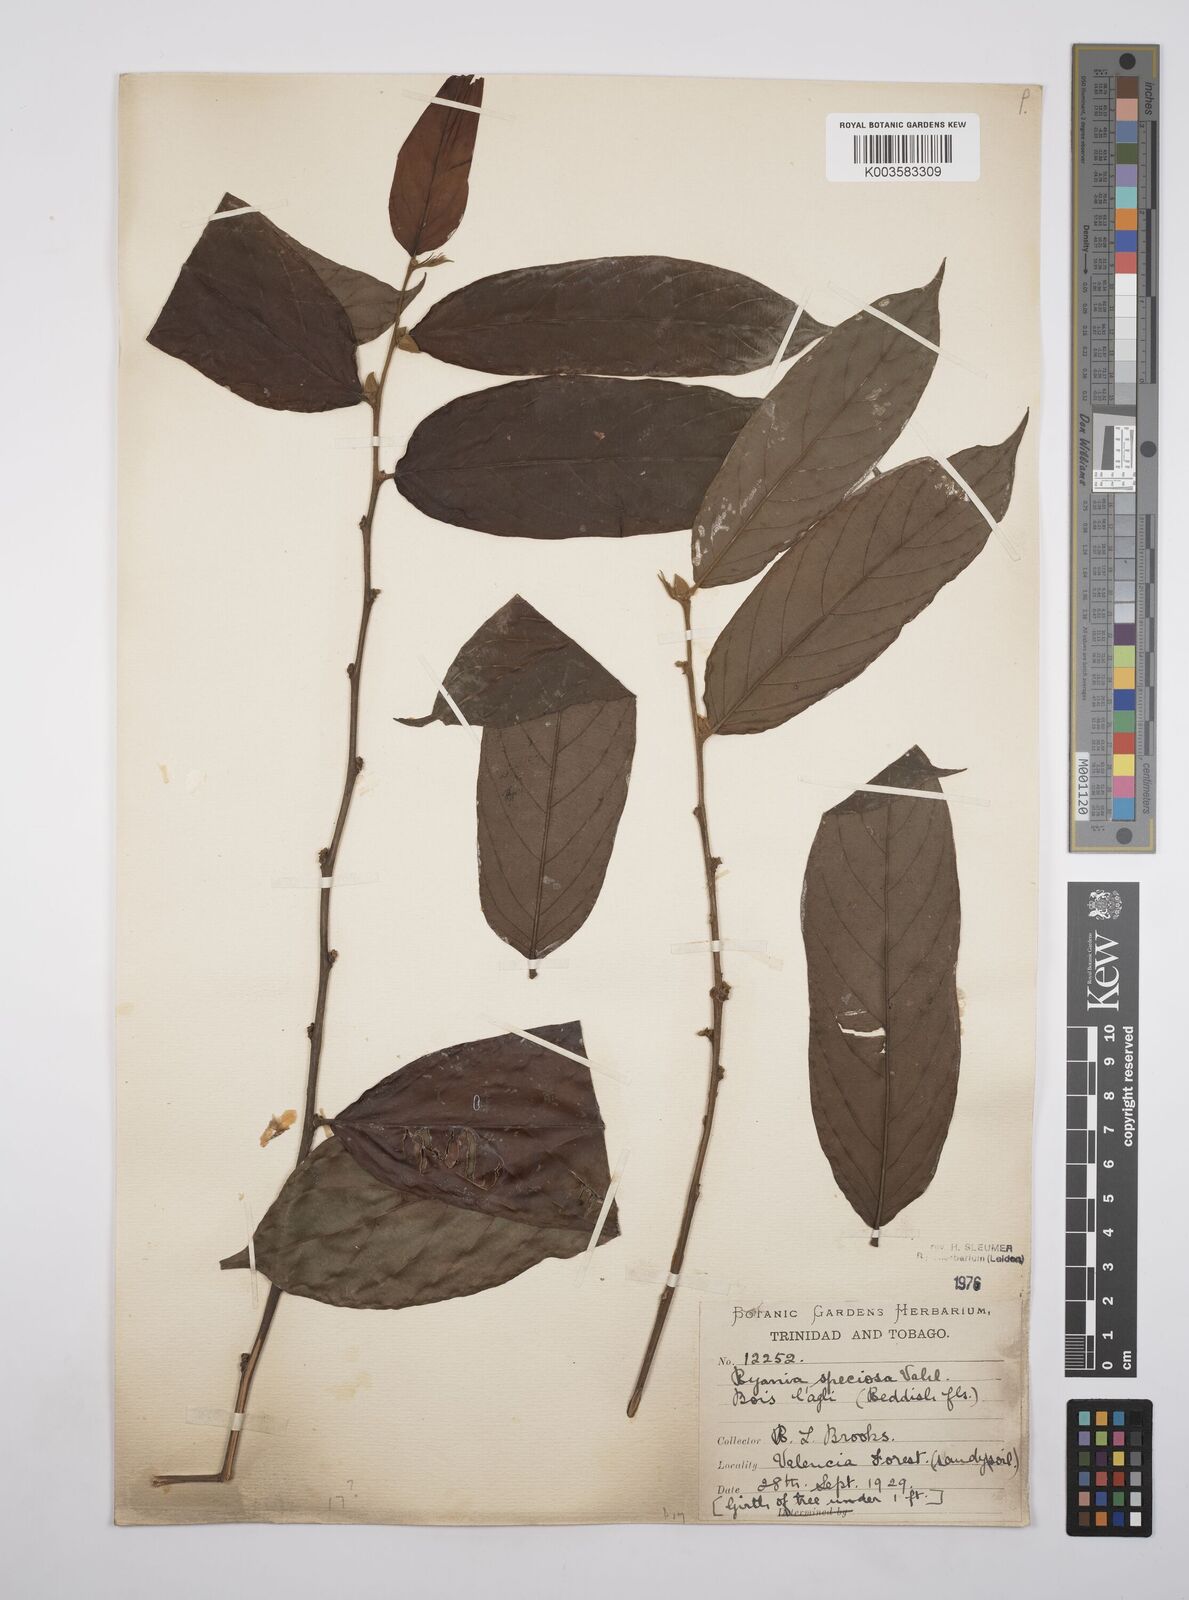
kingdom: Plantae
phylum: Tracheophyta
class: Magnoliopsida
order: Malpighiales
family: Salicaceae
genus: Ryania
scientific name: Ryania speciosa
